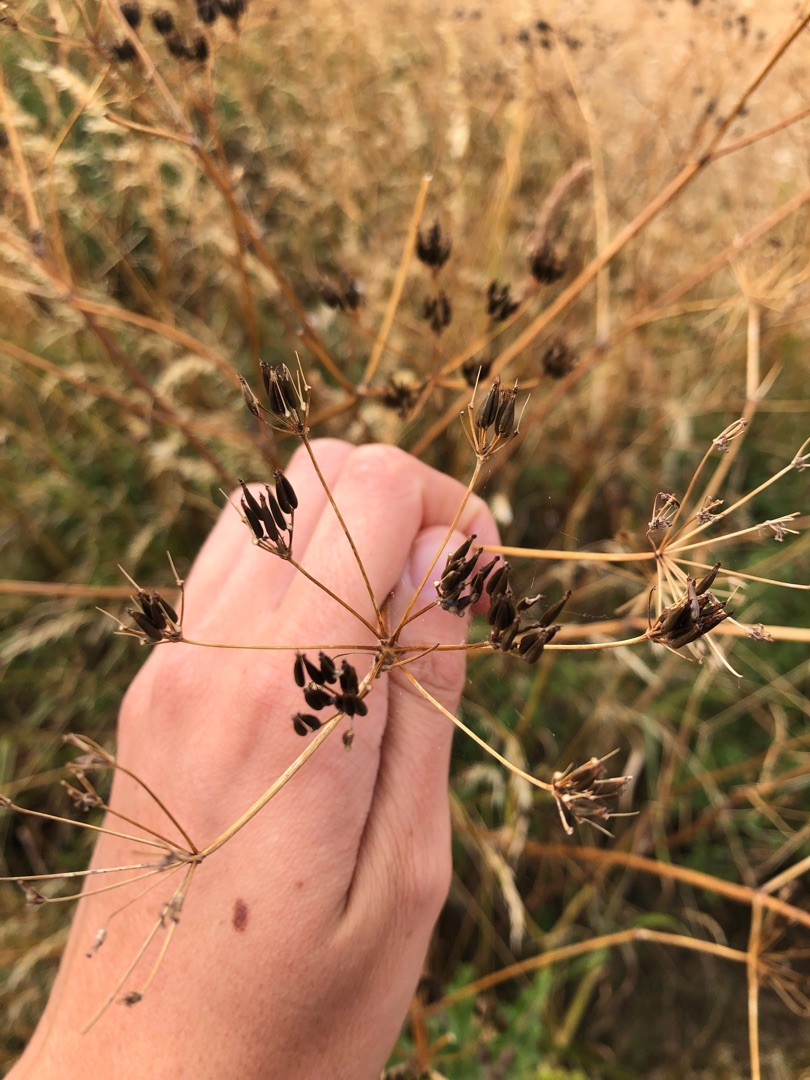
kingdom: Plantae
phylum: Tracheophyta
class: Magnoliopsida
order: Apiales
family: Apiaceae
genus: Anthriscus
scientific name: Anthriscus sylvestris
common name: Vild kørvel
